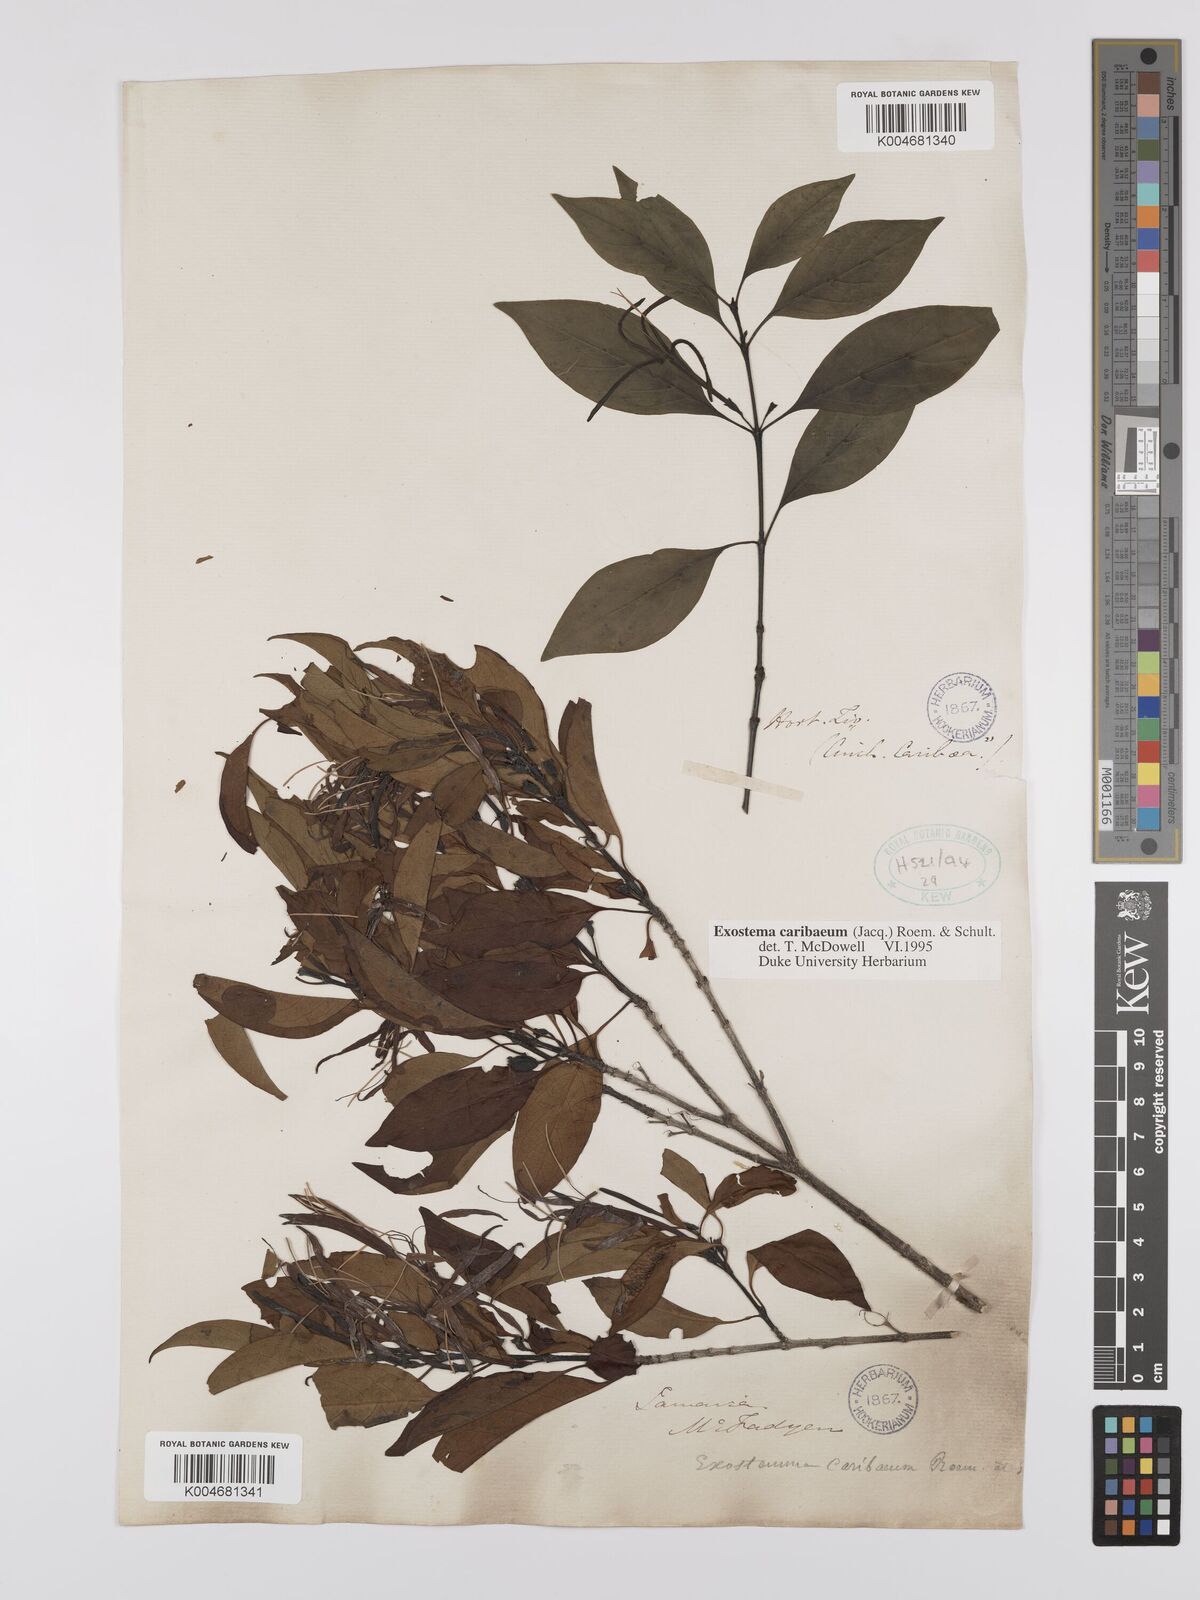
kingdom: Plantae
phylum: Tracheophyta
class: Magnoliopsida
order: Gentianales
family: Rubiaceae
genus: Exostema
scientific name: Exostema caribaeum
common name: Princewood
